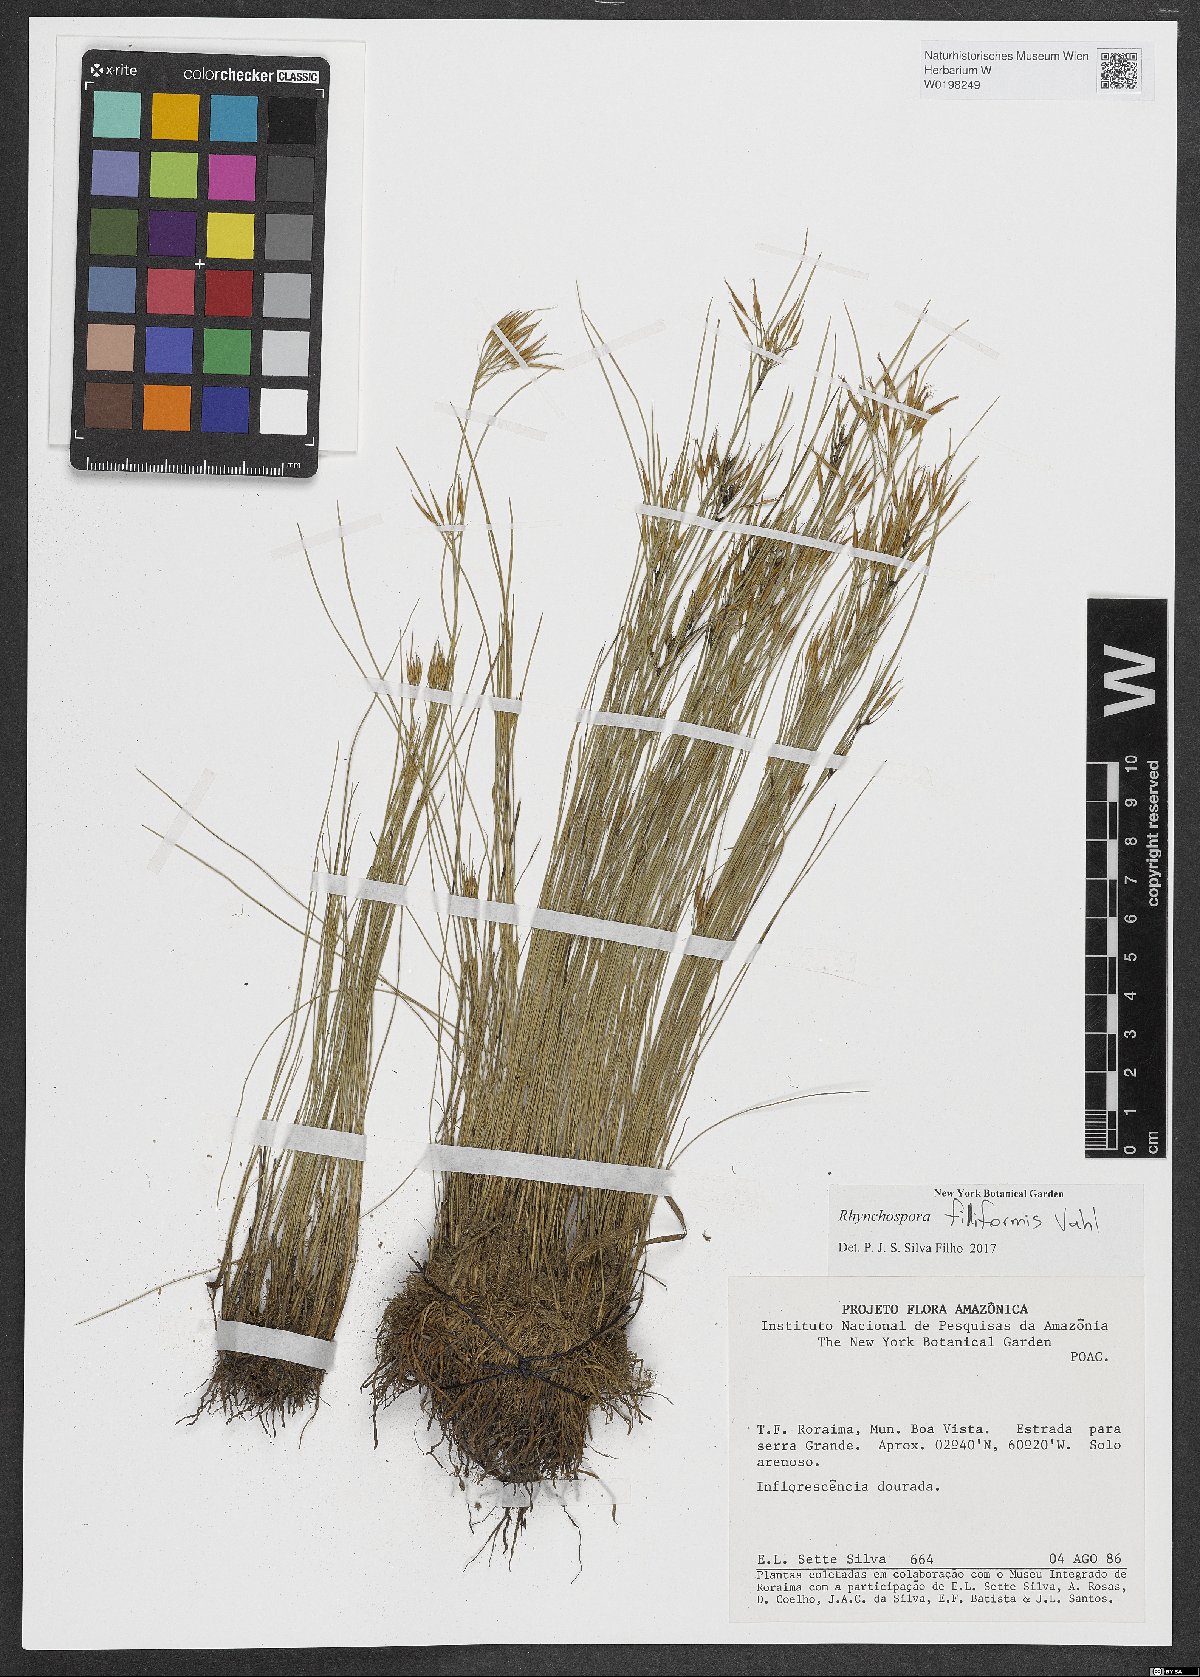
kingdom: Plantae
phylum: Tracheophyta
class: Liliopsida
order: Poales
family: Cyperaceae
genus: Rhynchospora
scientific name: Rhynchospora filiformis
